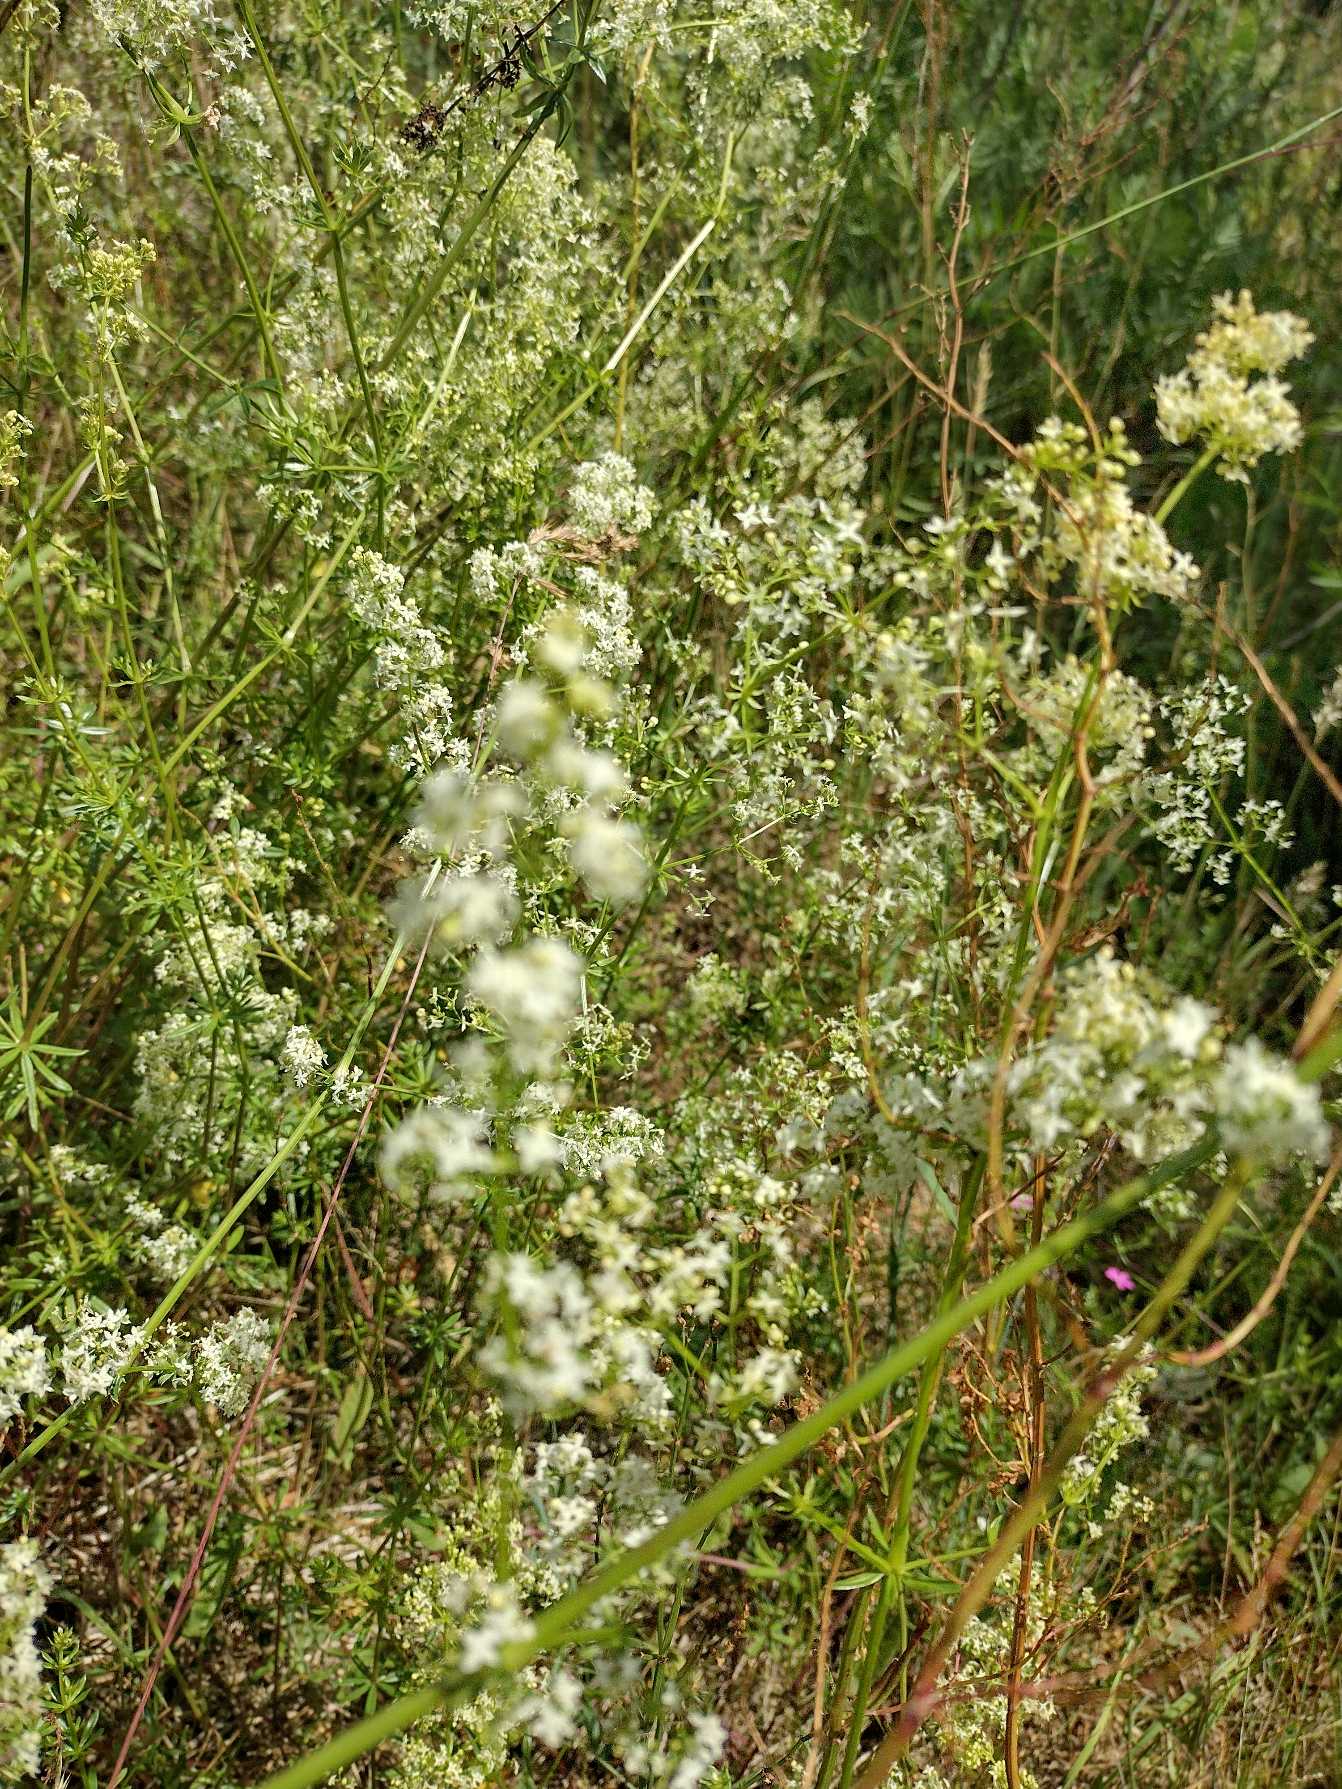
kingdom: Plantae
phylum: Tracheophyta
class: Magnoliopsida
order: Gentianales
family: Rubiaceae
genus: Galium
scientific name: Galium mollugo
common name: Hvid snerre
